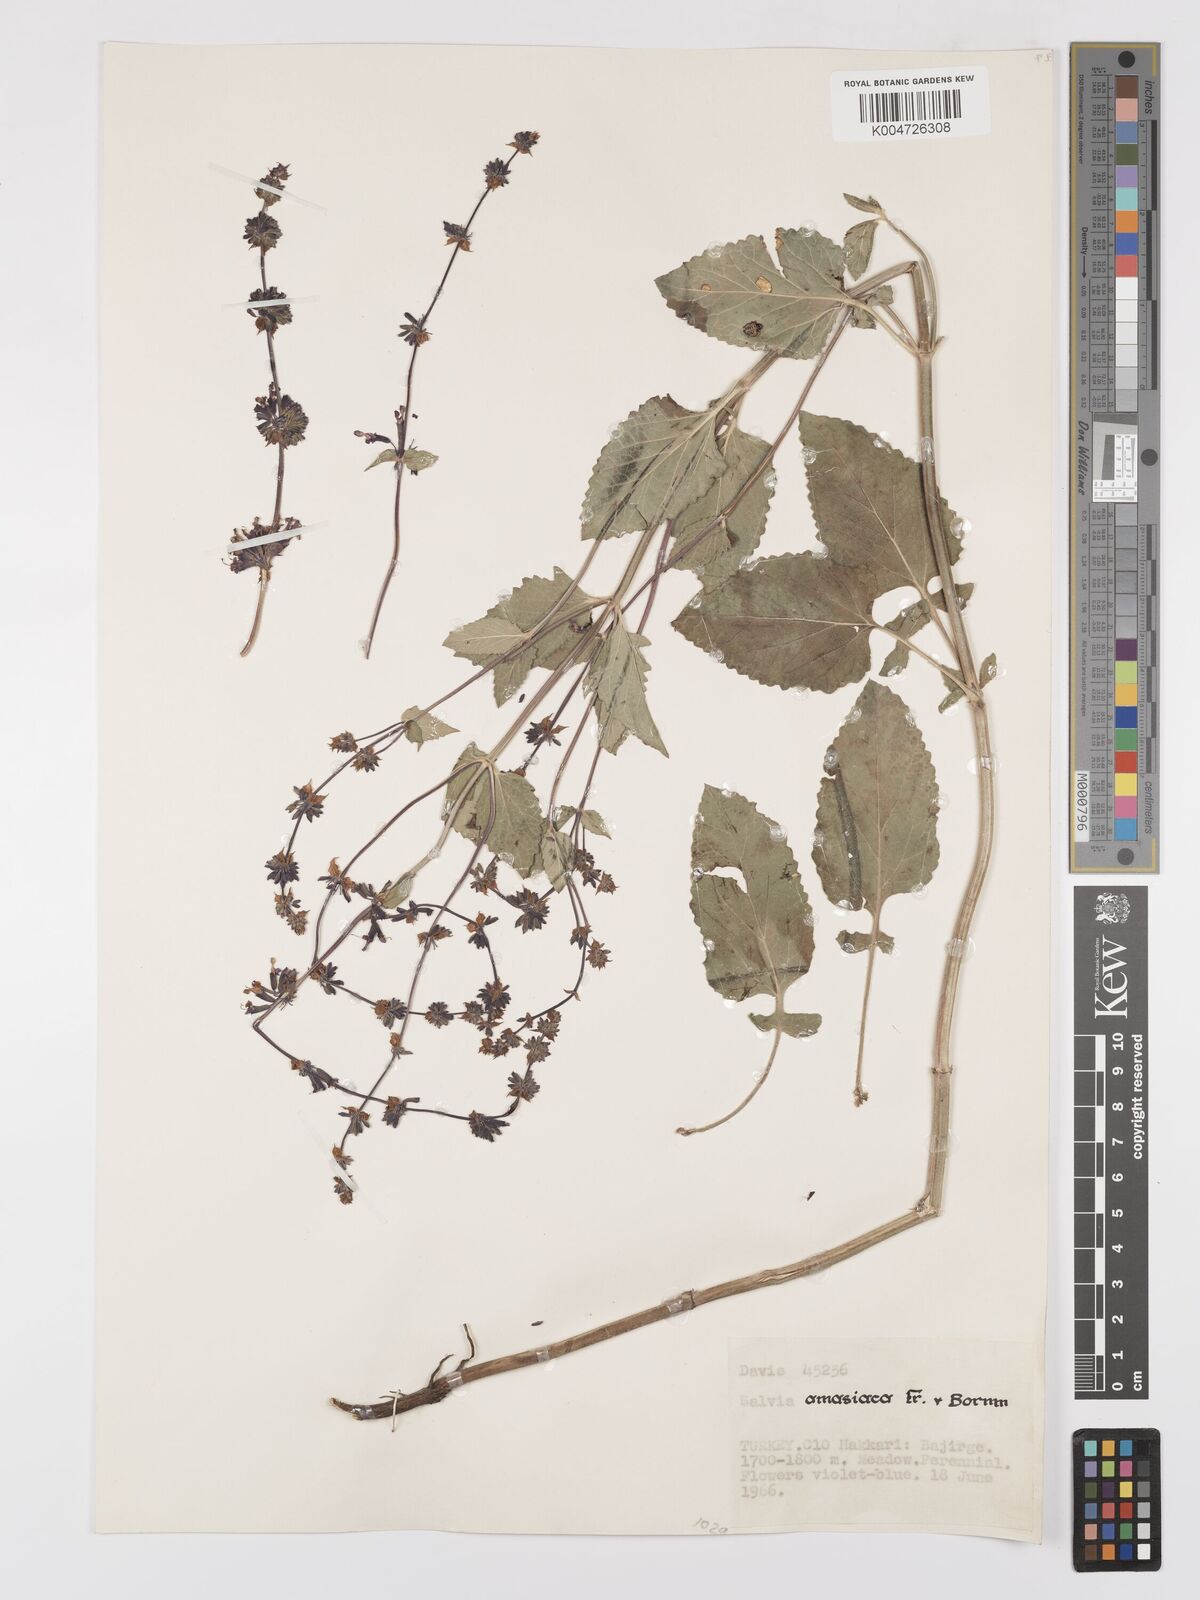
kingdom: Plantae
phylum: Tracheophyta
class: Magnoliopsida
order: Lamiales
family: Lamiaceae
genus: Salvia
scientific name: Salvia verticillata
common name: Whorled clary
